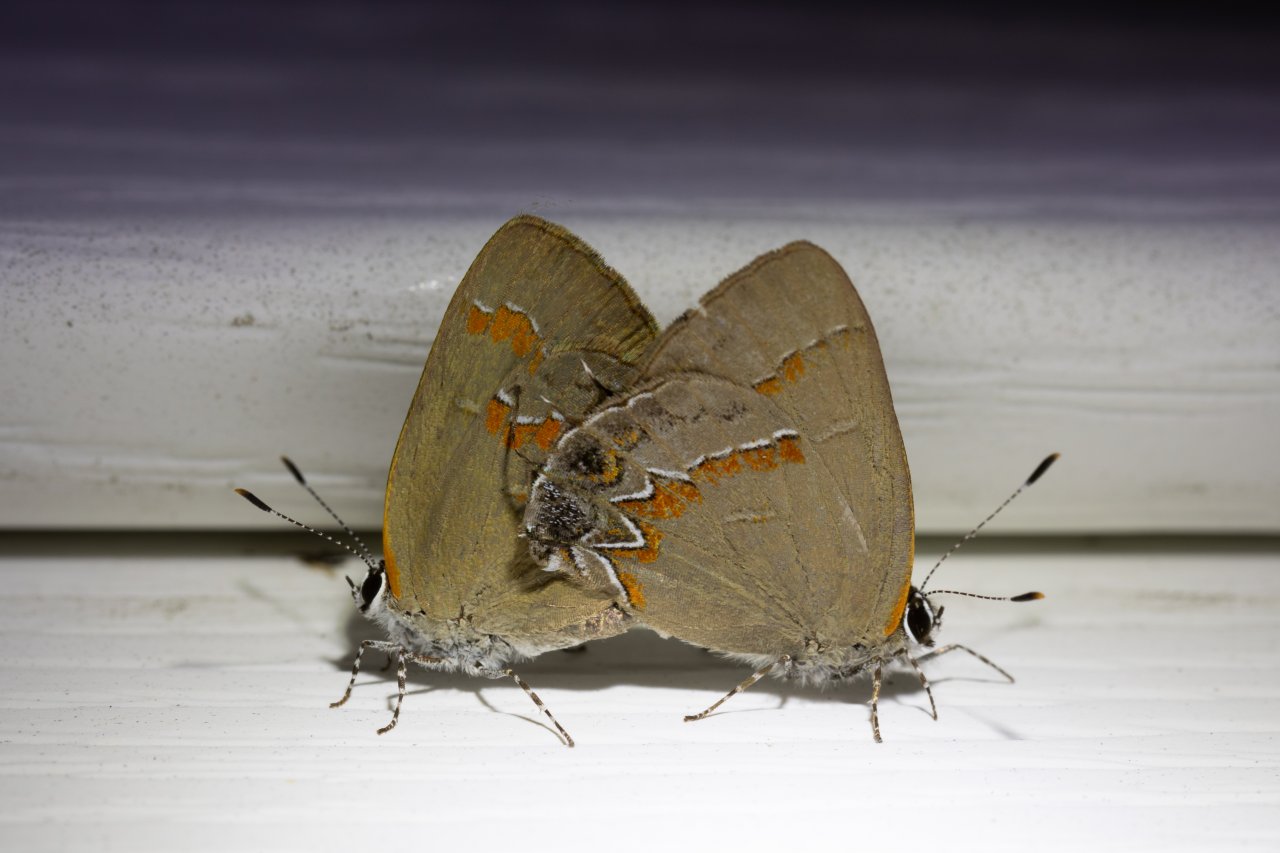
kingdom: Animalia
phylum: Arthropoda
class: Insecta
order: Lepidoptera
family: Lycaenidae
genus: Calycopis
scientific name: Calycopis cecrops
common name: Red-banded Hairstreak
